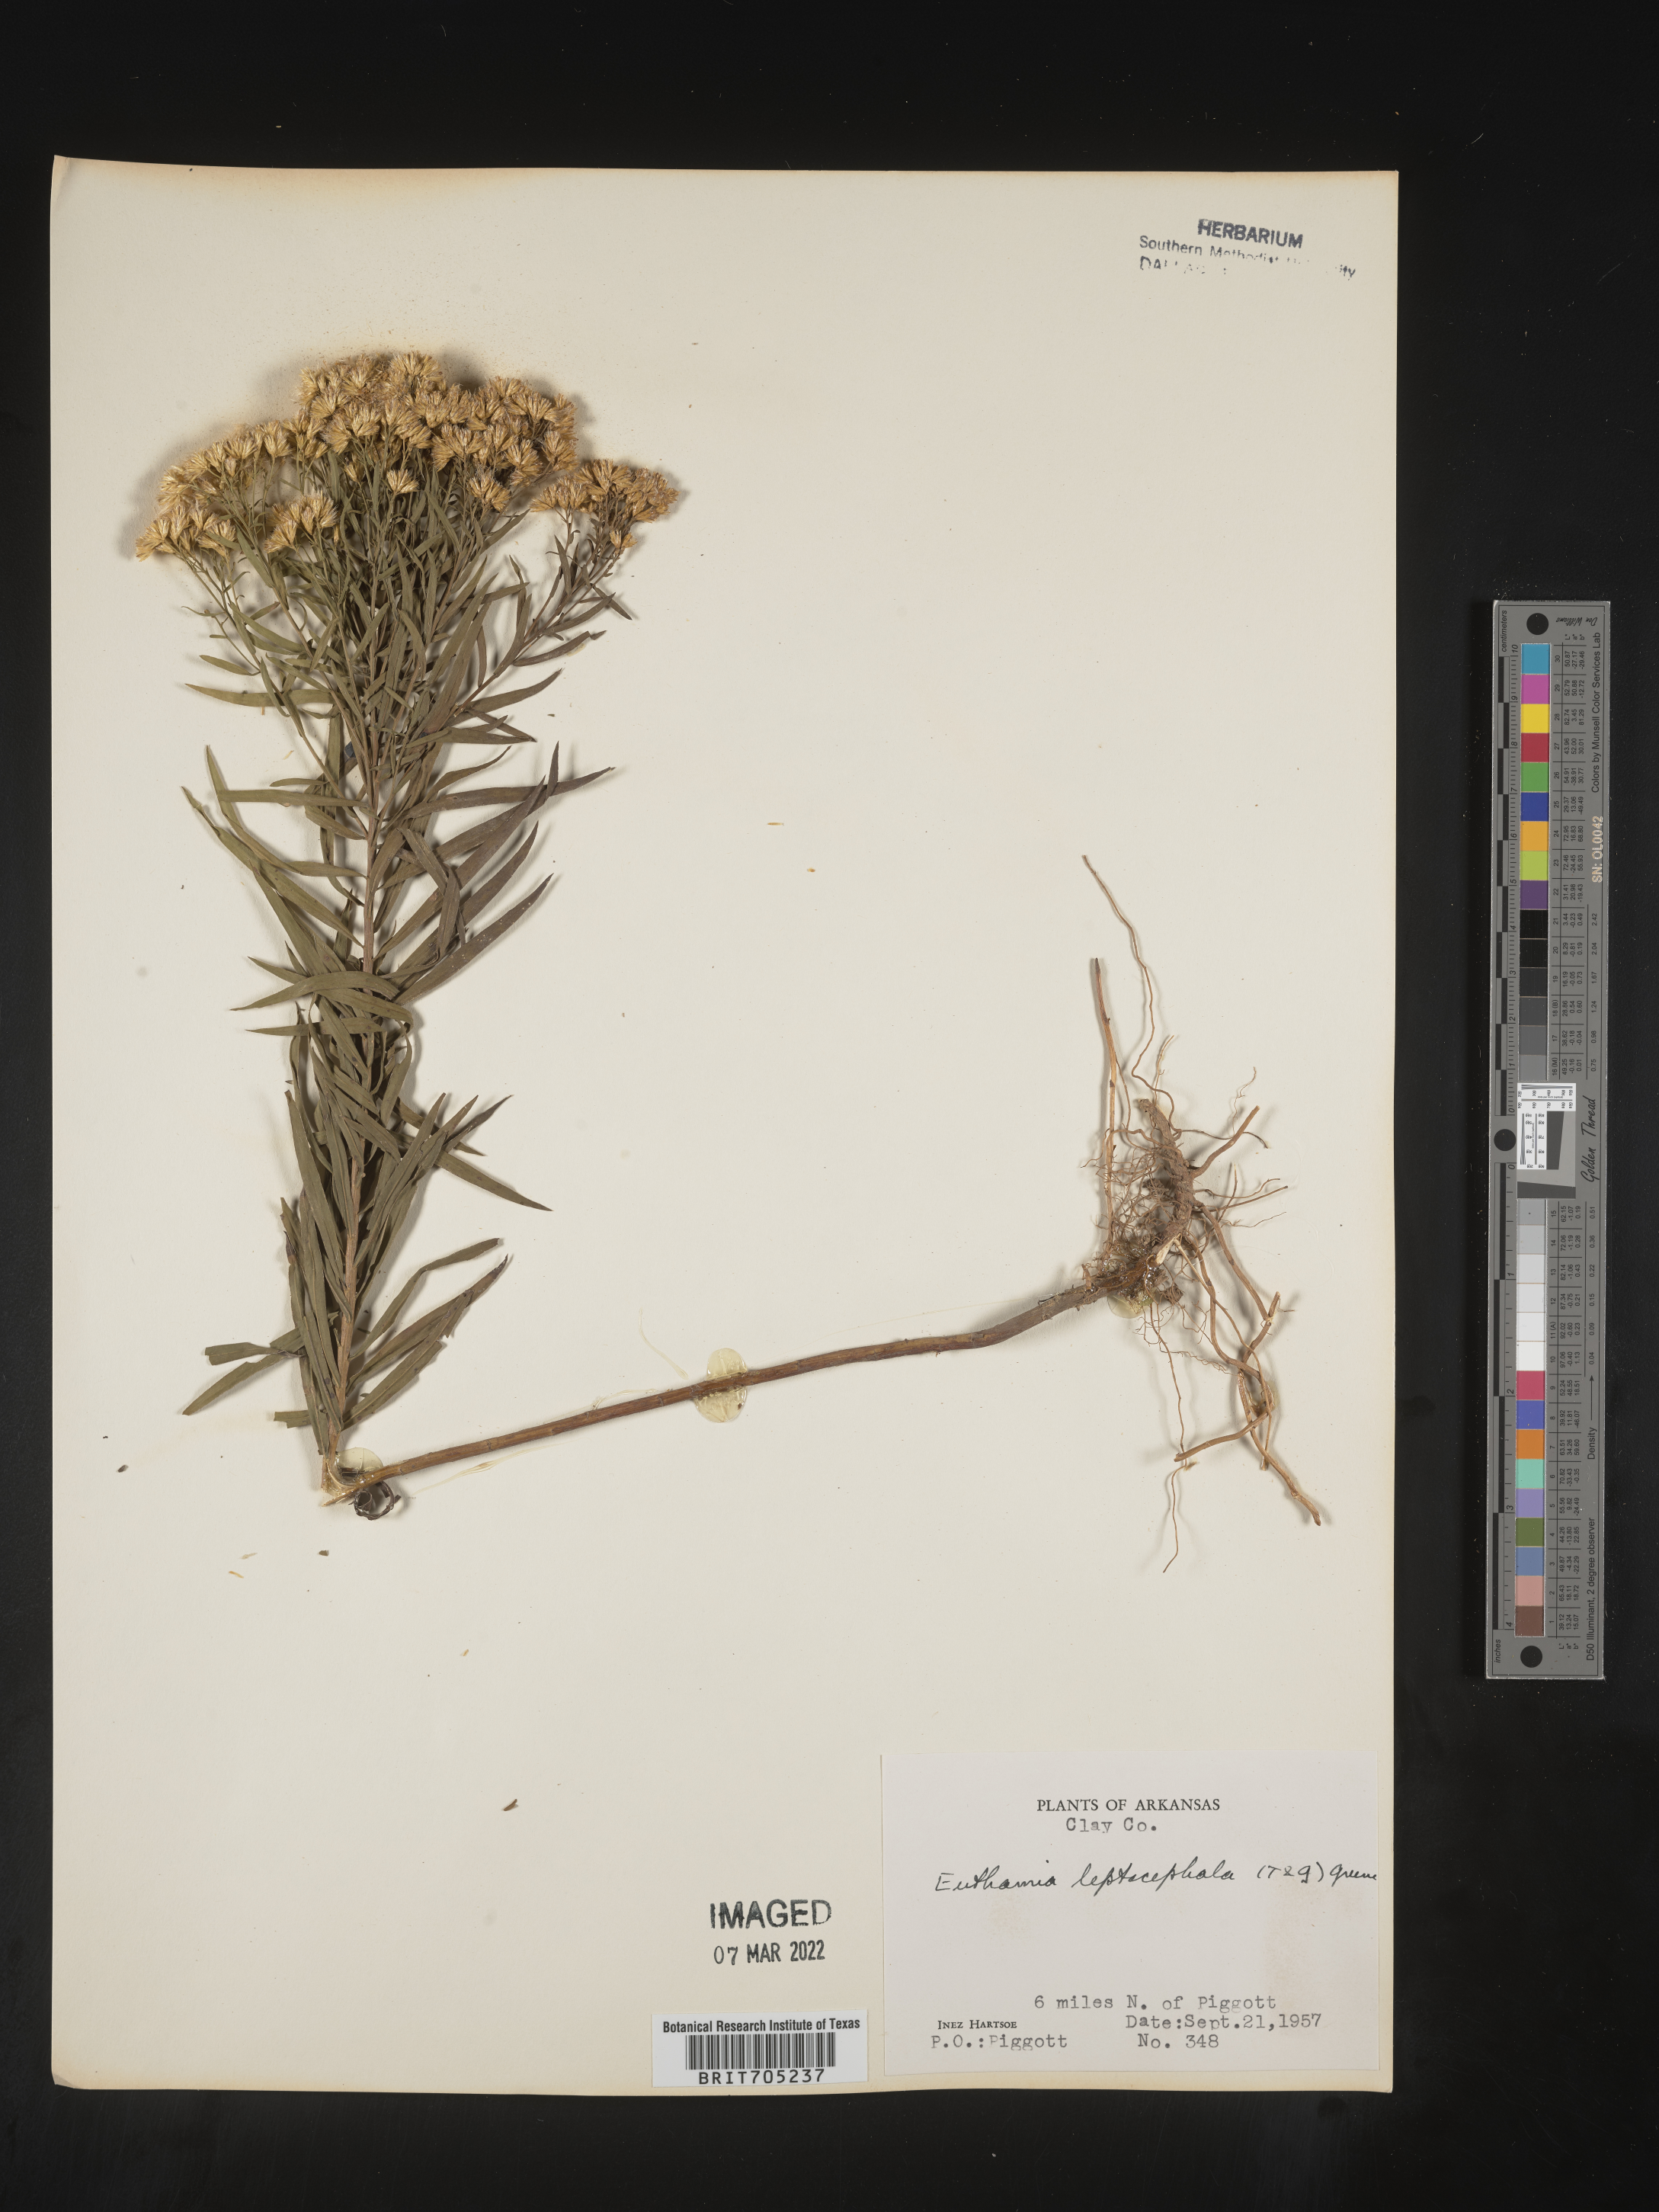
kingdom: Plantae
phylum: Tracheophyta
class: Magnoliopsida
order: Asterales
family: Asteraceae
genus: Euthamia
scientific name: Euthamia leptocephala
